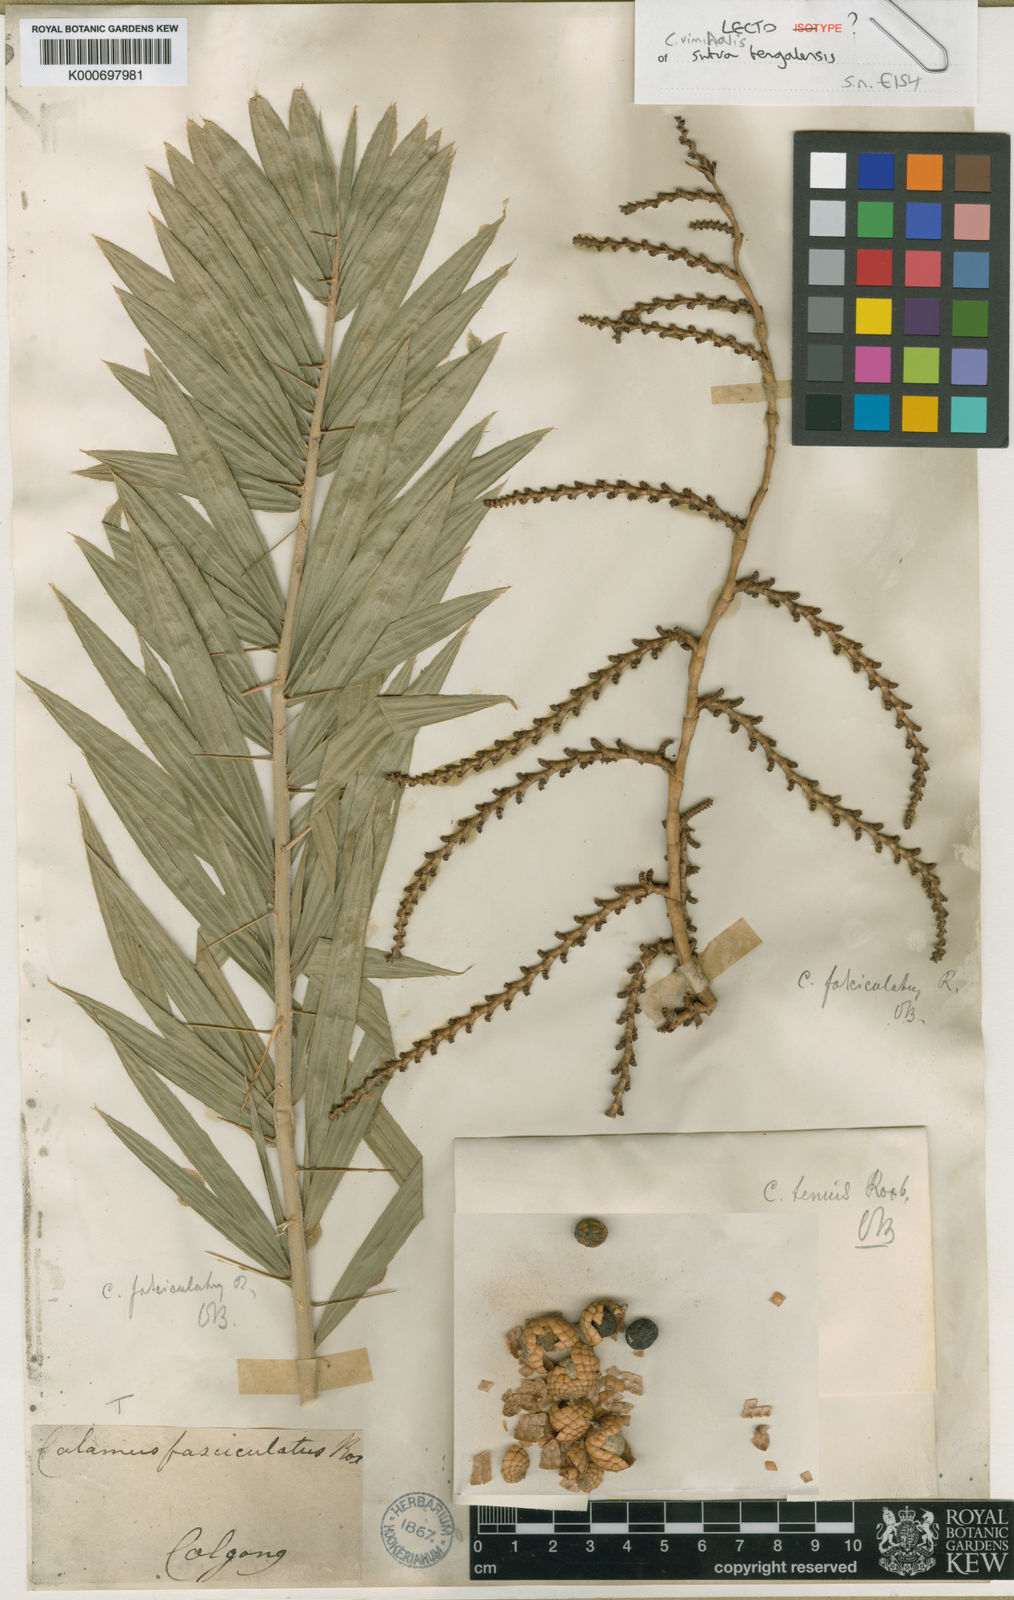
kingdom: Plantae
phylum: Tracheophyta
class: Liliopsida
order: Arecales
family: Arecaceae
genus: Calamus
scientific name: Calamus viminalis
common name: Osier-like rattan palm
